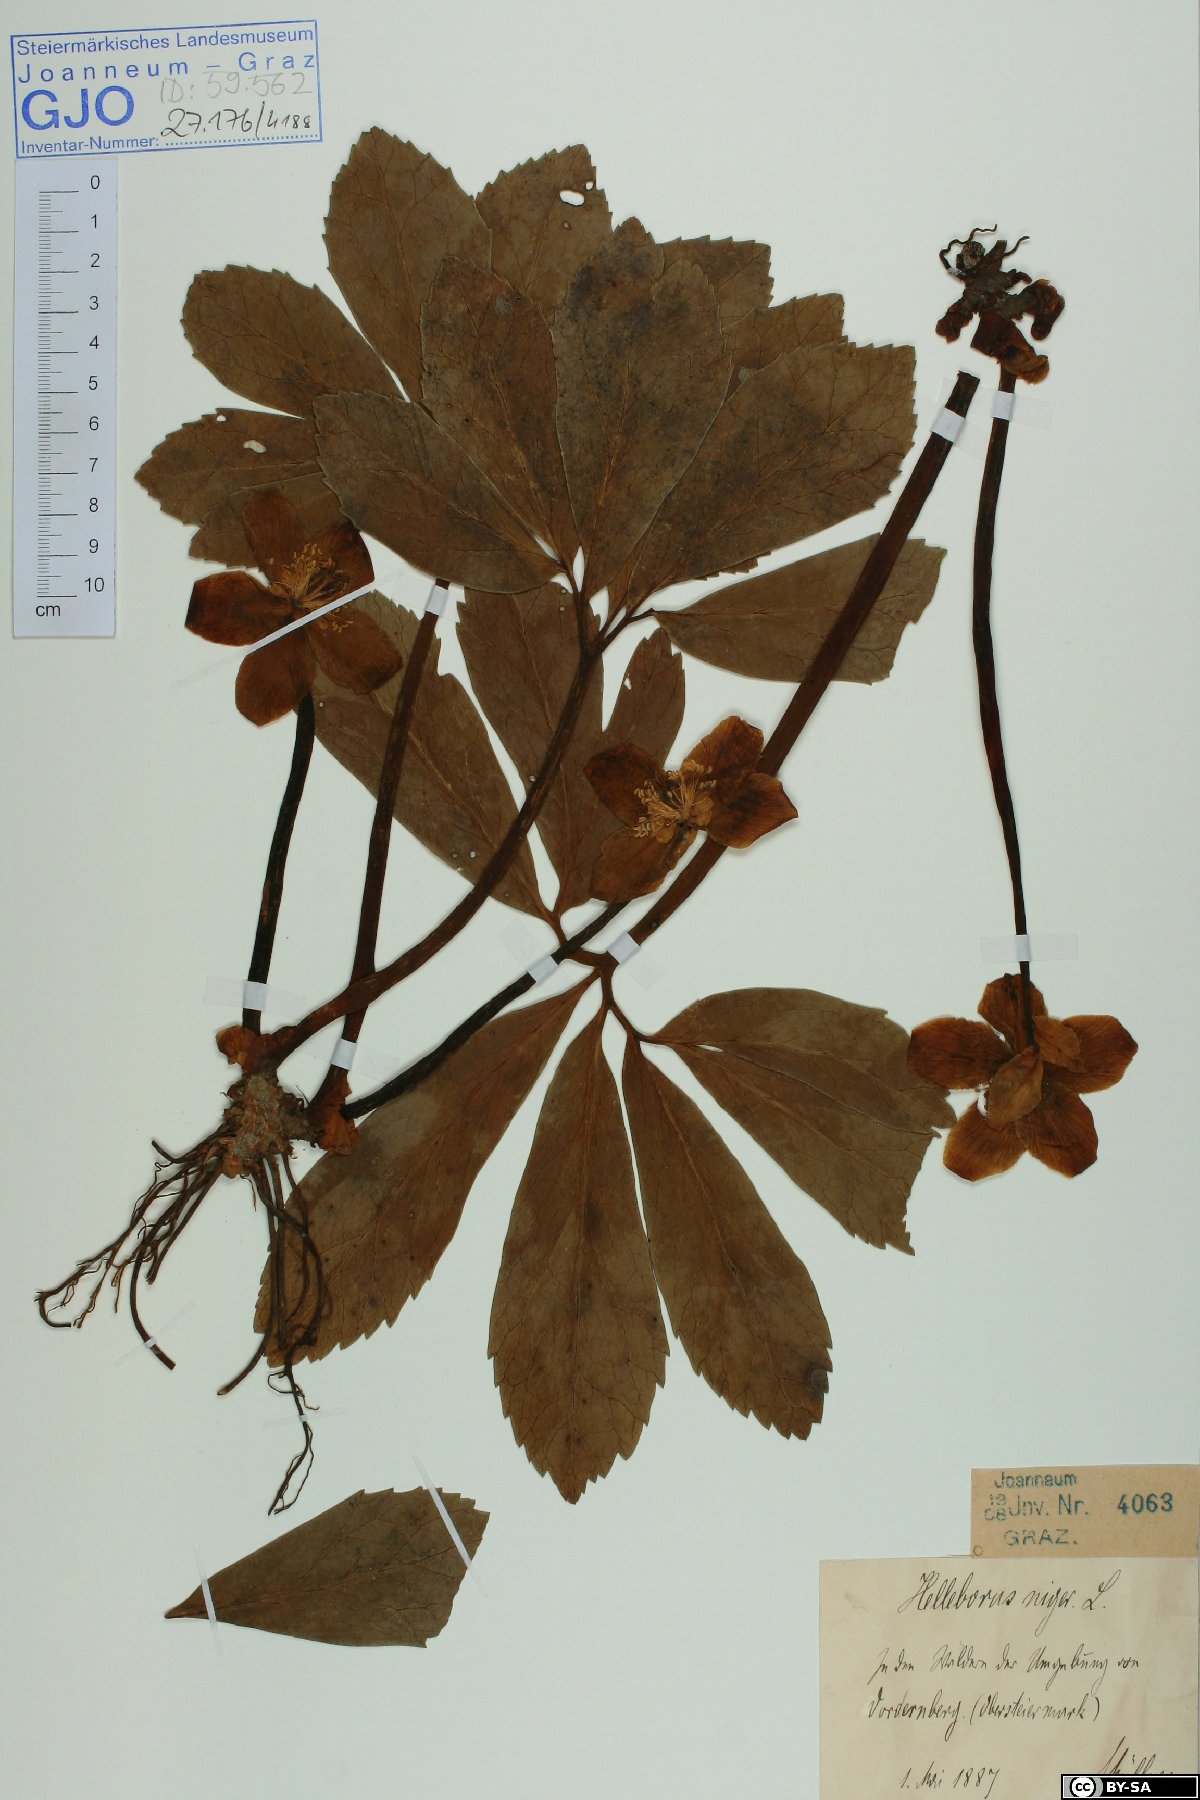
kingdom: Plantae
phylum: Tracheophyta
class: Magnoliopsida
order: Ranunculales
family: Ranunculaceae
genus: Helleborus
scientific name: Helleborus niger
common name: Black hellebore
